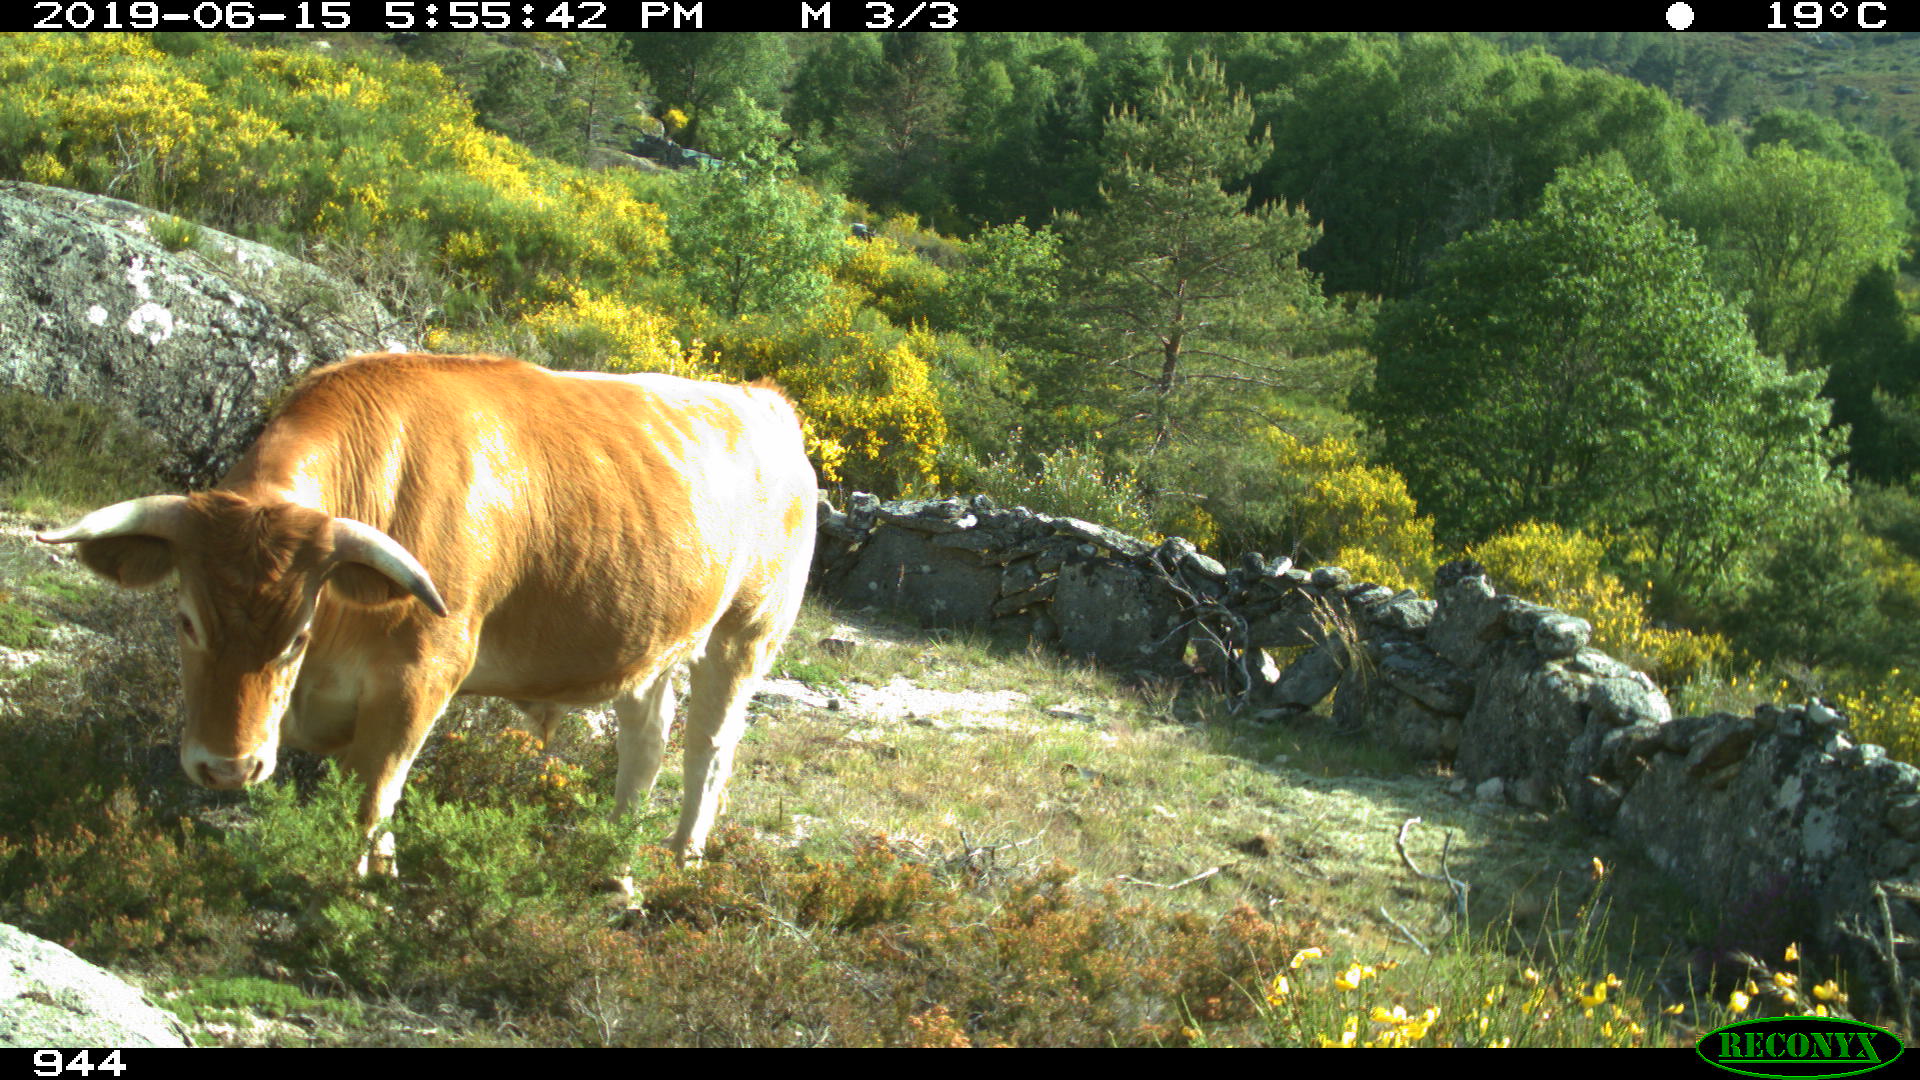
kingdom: Animalia
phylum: Chordata
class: Mammalia
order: Artiodactyla
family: Bovidae
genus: Bos
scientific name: Bos taurus
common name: Domesticated cattle
